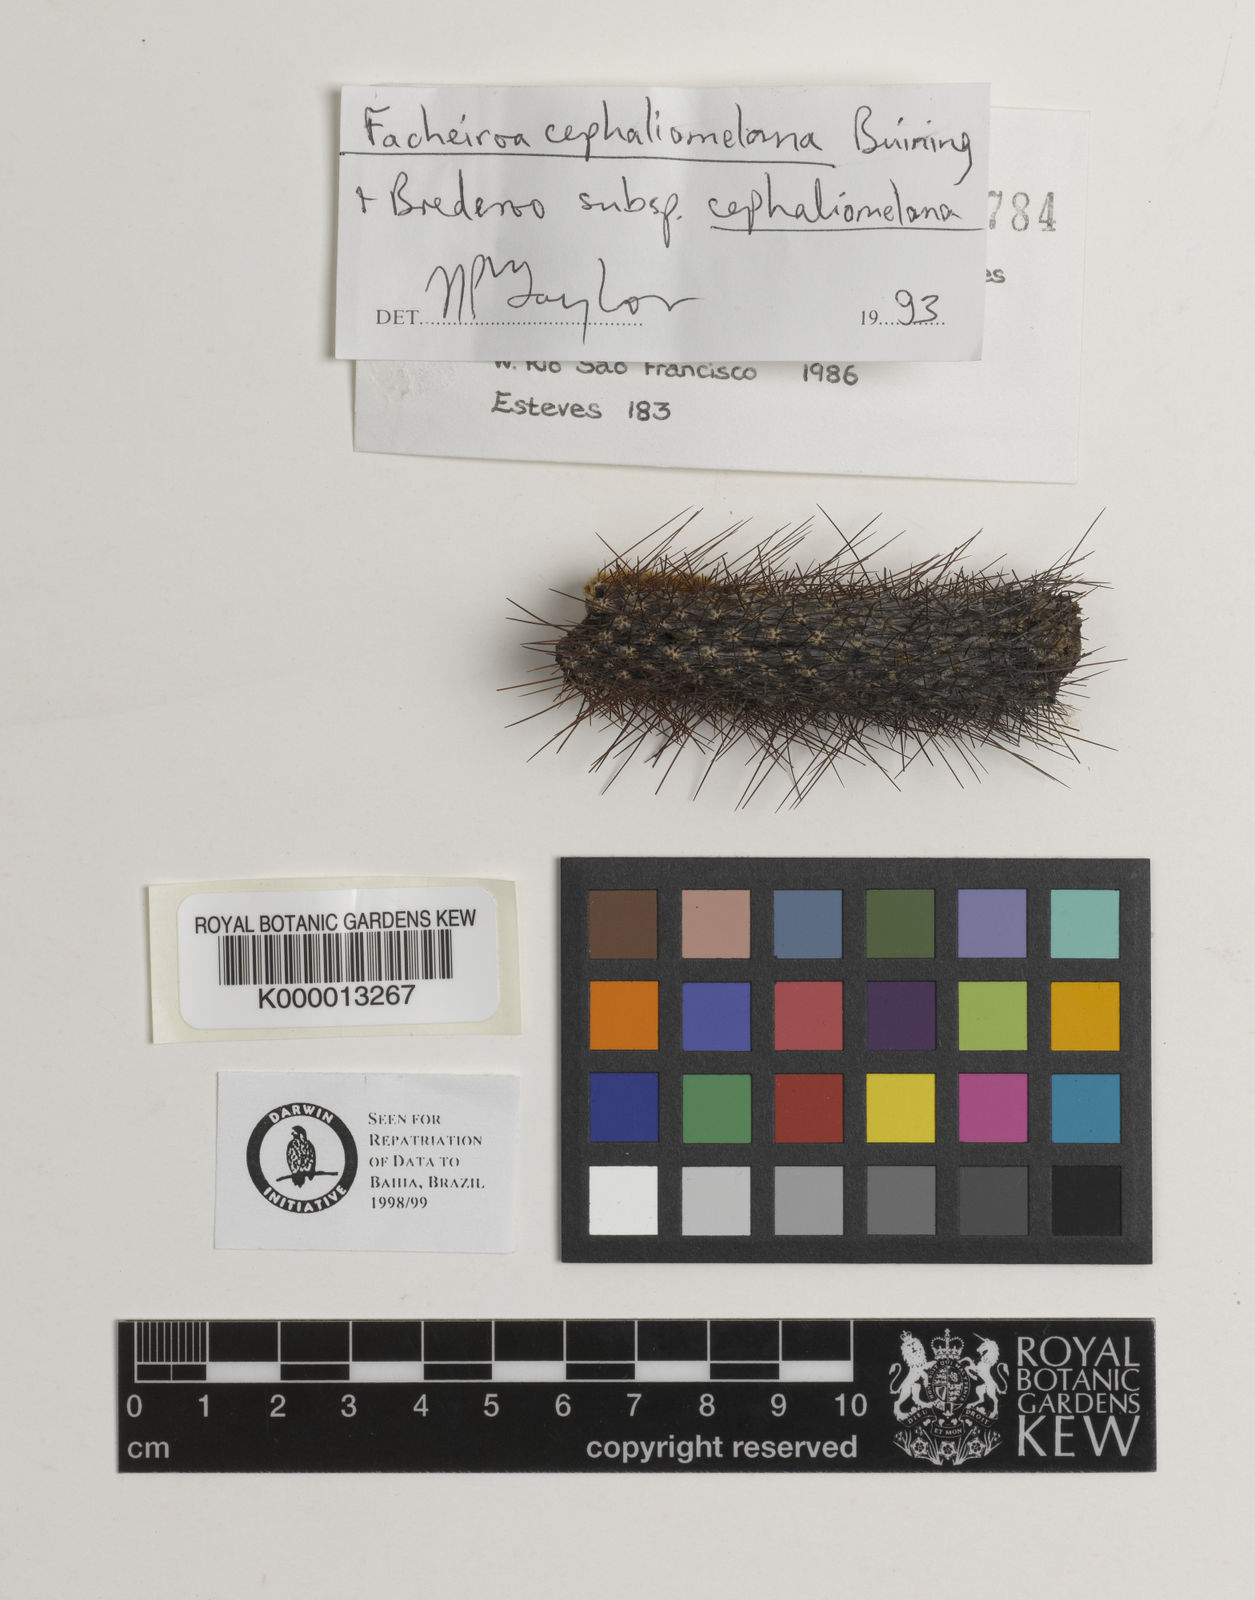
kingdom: Plantae
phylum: Tracheophyta
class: Magnoliopsida
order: Caryophyllales
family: Cactaceae
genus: Facheiroa
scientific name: Facheiroa cephaliomelana
